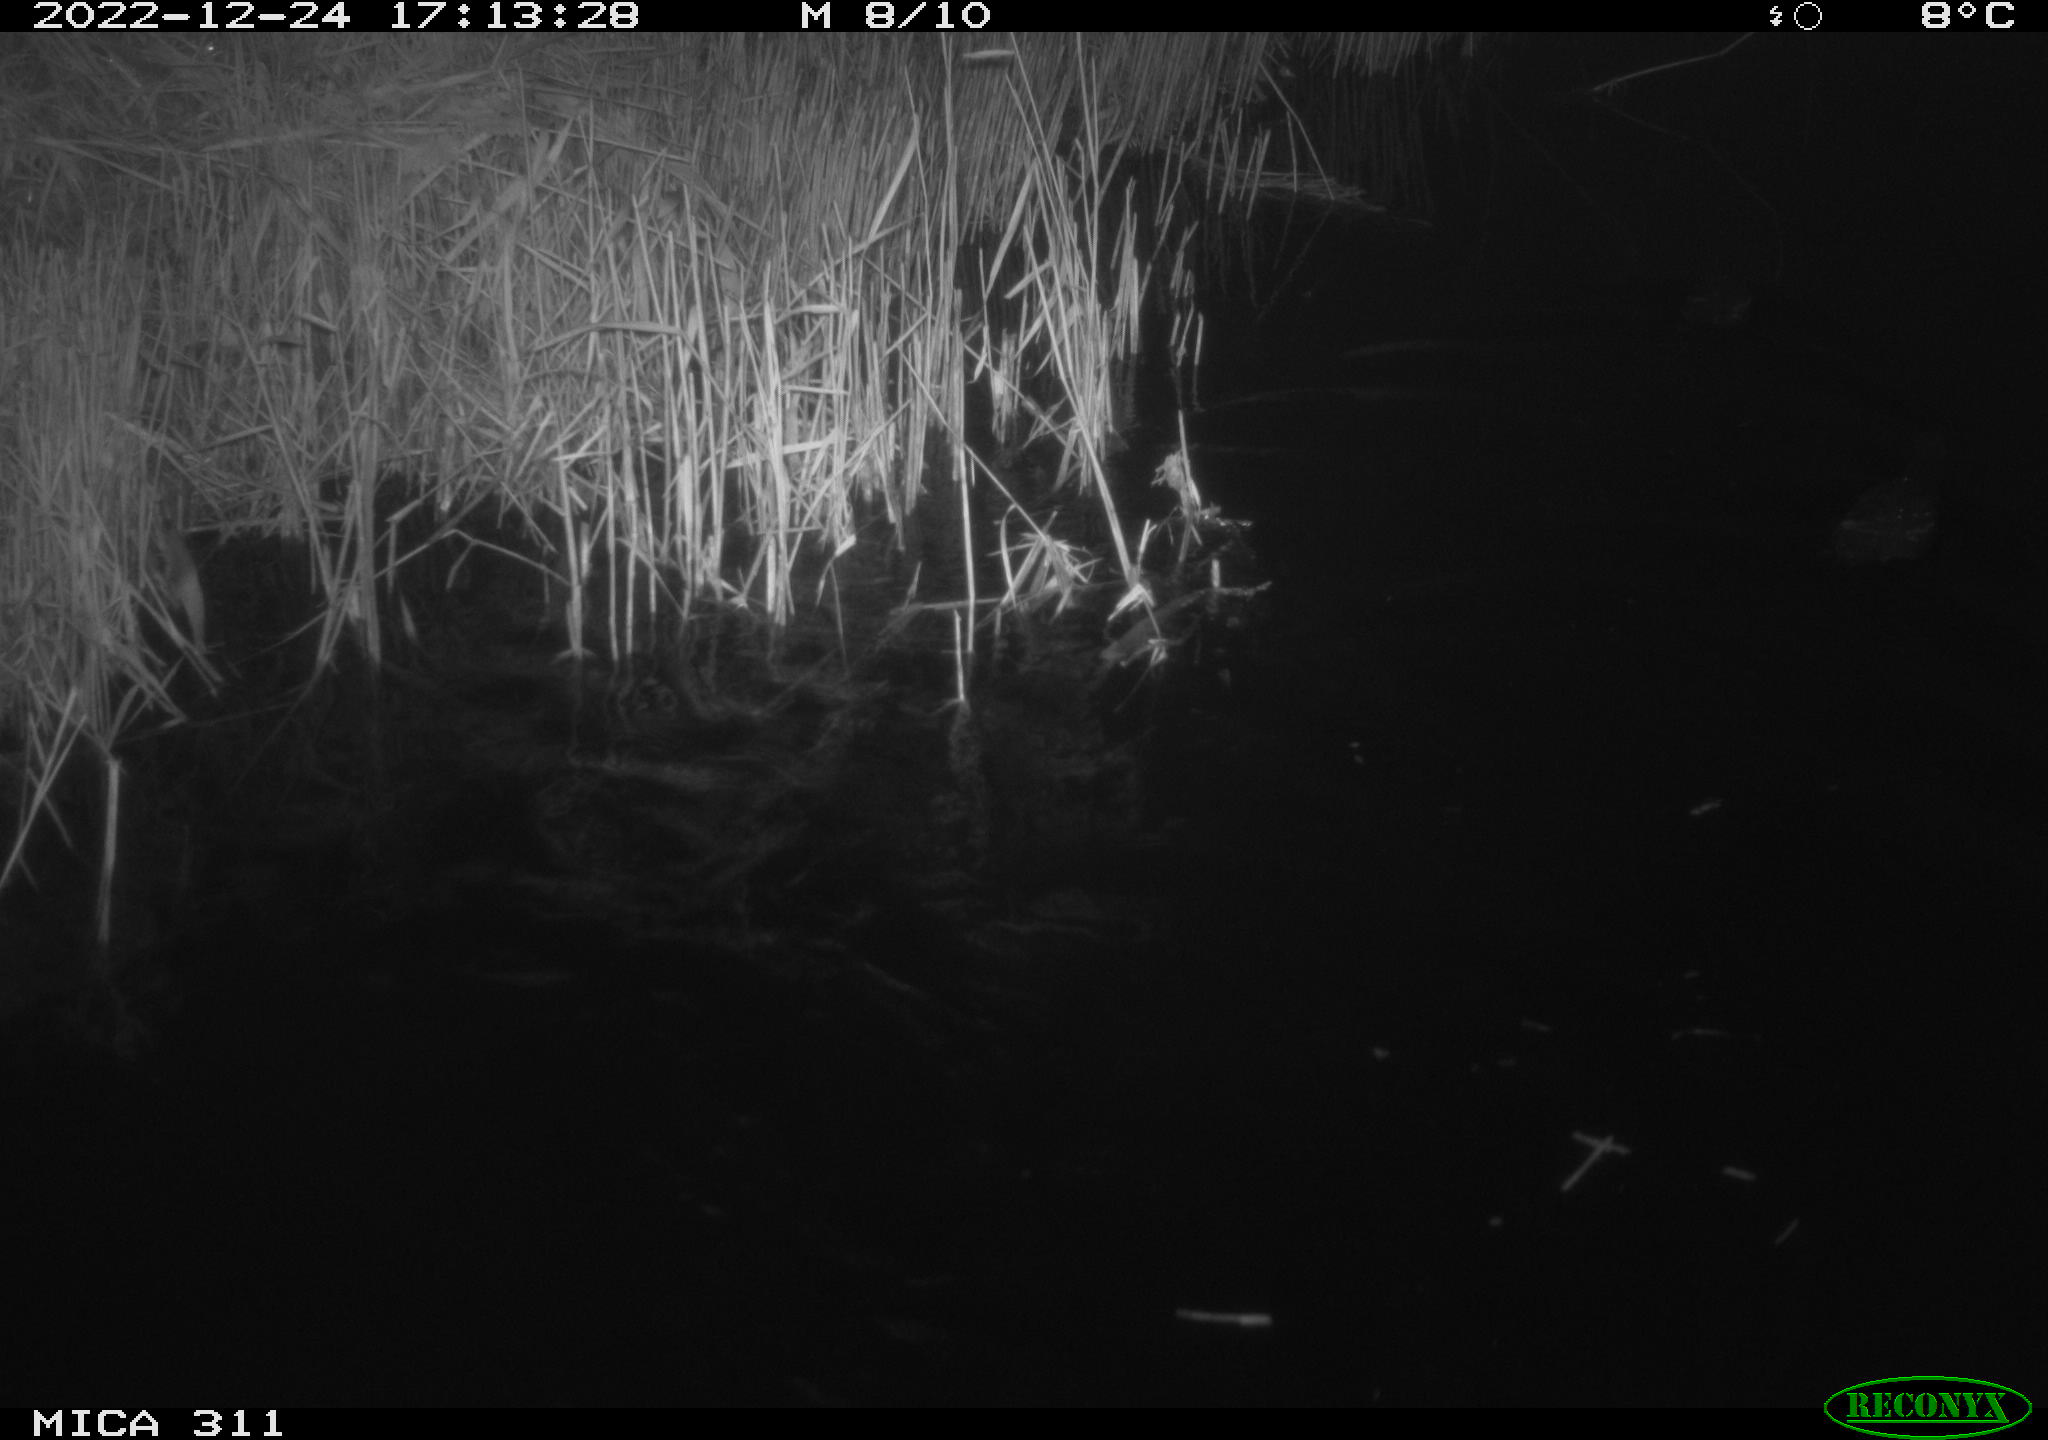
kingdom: Animalia
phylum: Chordata
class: Aves
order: Gruiformes
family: Rallidae
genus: Gallinula
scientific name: Gallinula chloropus
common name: Common moorhen
